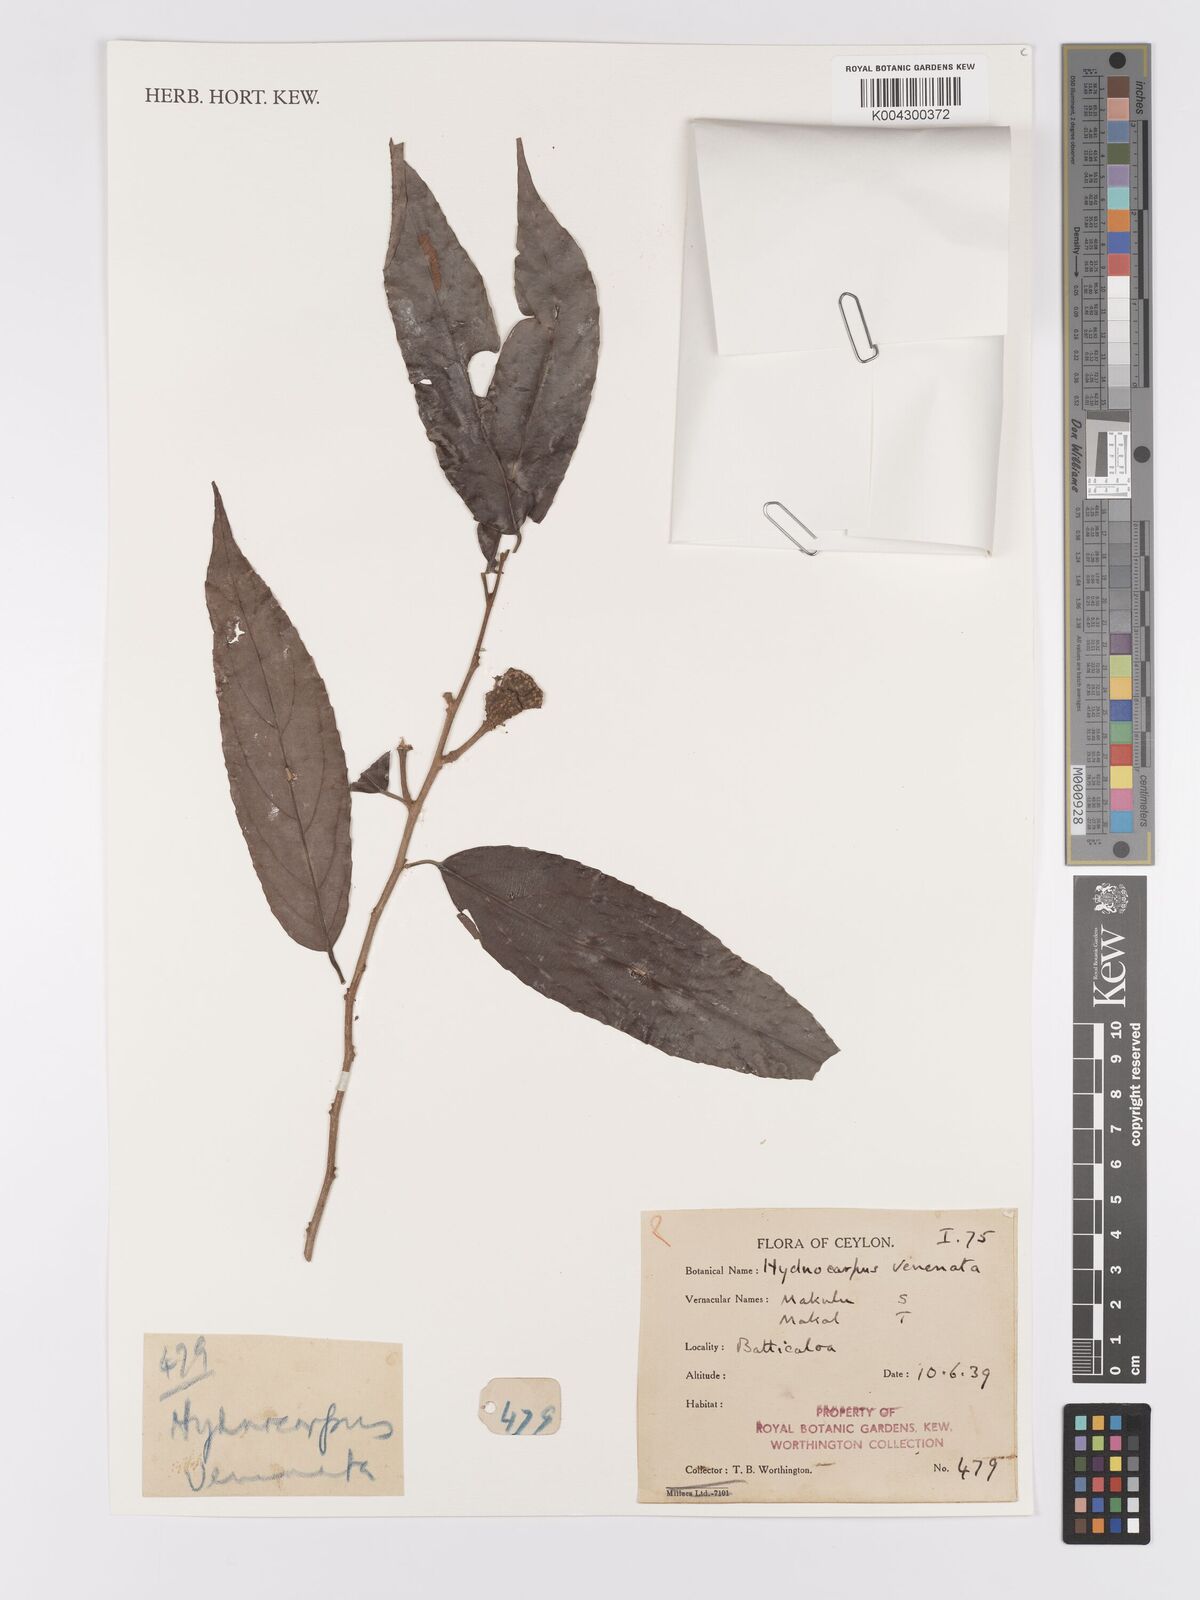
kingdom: Plantae
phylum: Tracheophyta
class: Magnoliopsida
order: Malpighiales
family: Achariaceae
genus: Hydnocarpus
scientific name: Hydnocarpus venenatus
